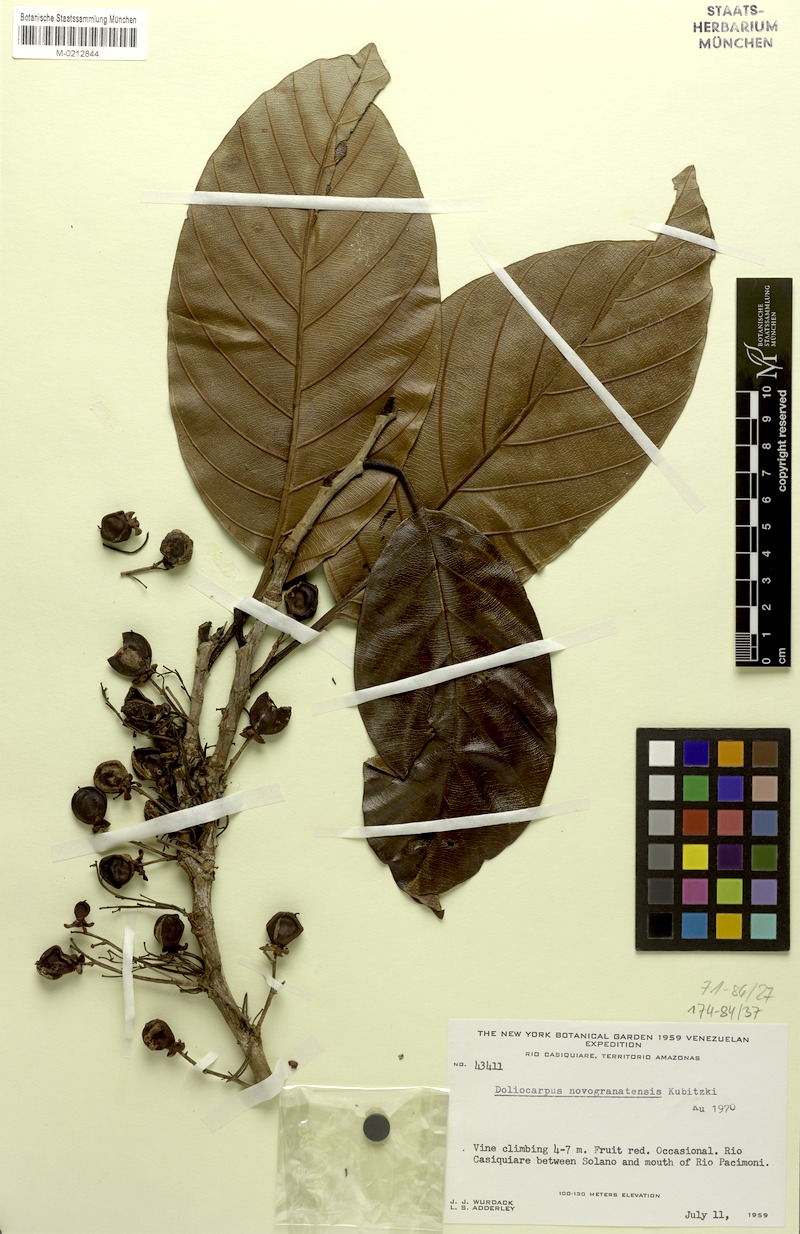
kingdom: Plantae
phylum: Tracheophyta
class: Magnoliopsida
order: Dilleniales
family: Dilleniaceae
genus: Doliocarpus
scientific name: Doliocarpus novogranatensis
